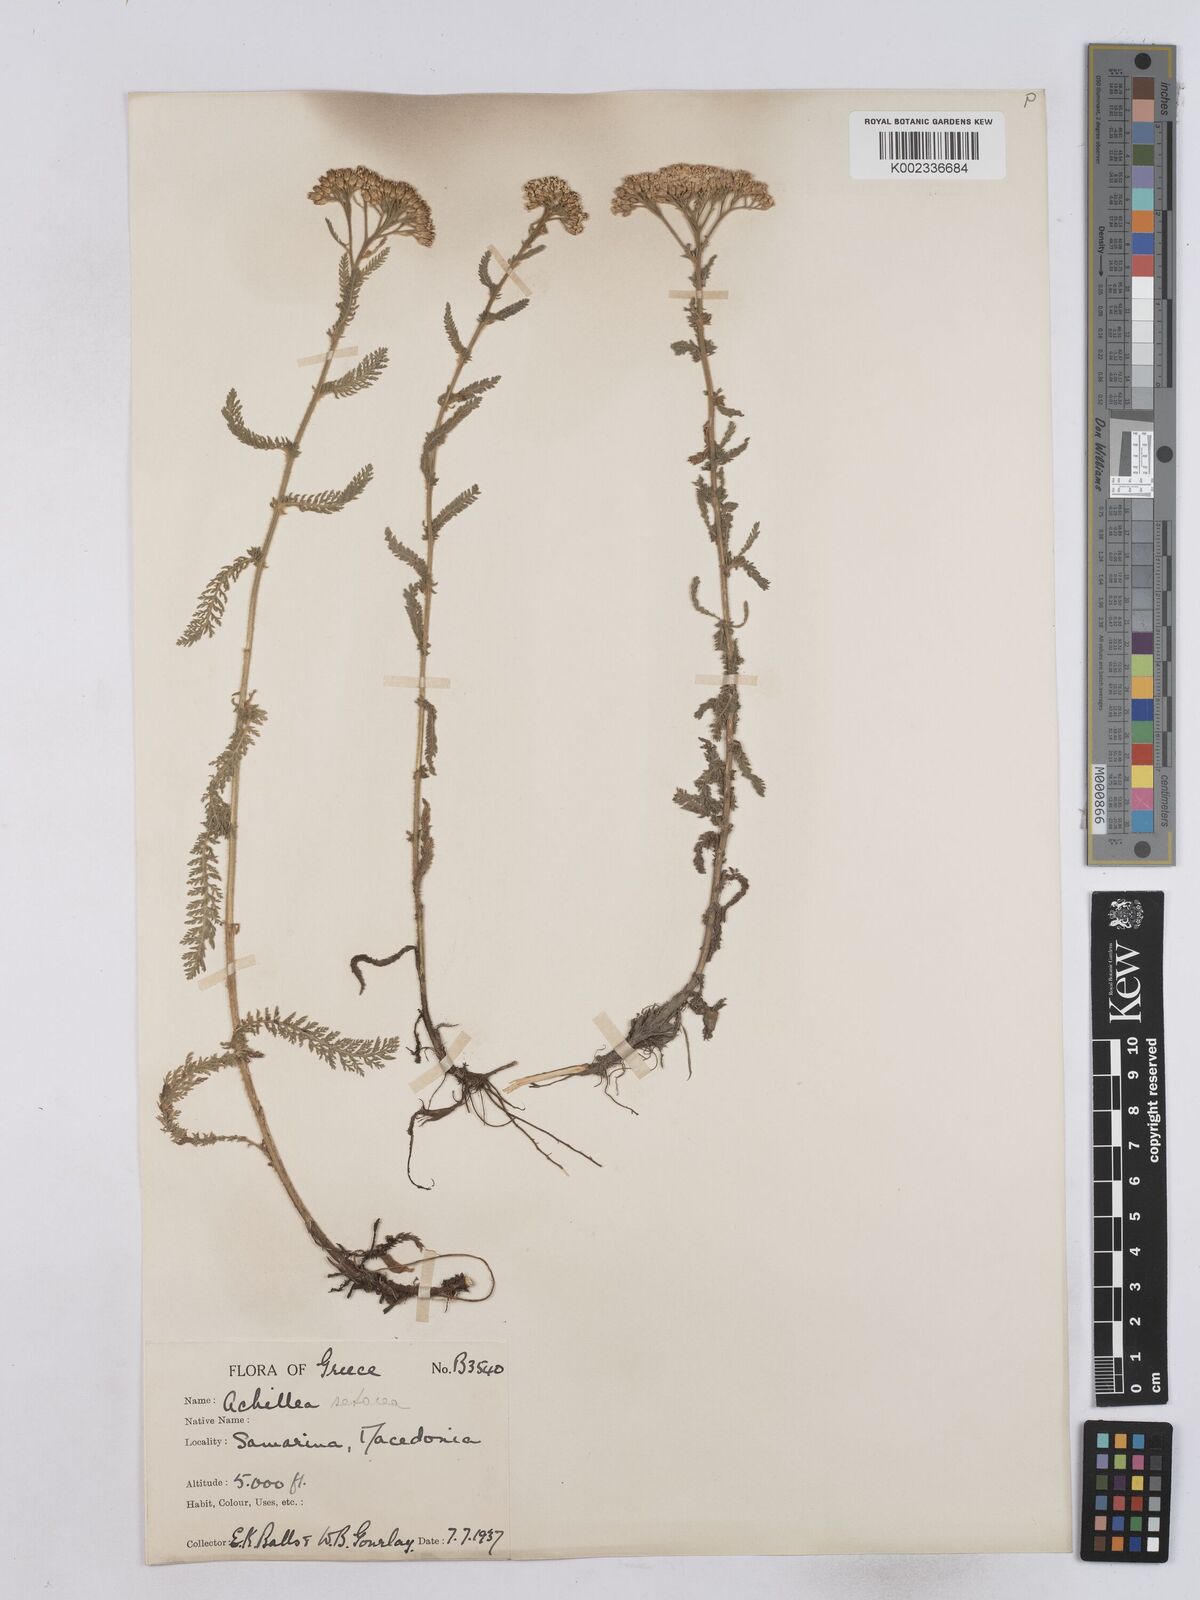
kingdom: Plantae
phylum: Tracheophyta
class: Magnoliopsida
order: Asterales
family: Asteraceae
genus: Achillea
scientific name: Achillea setacea
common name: Bristly yarrow
